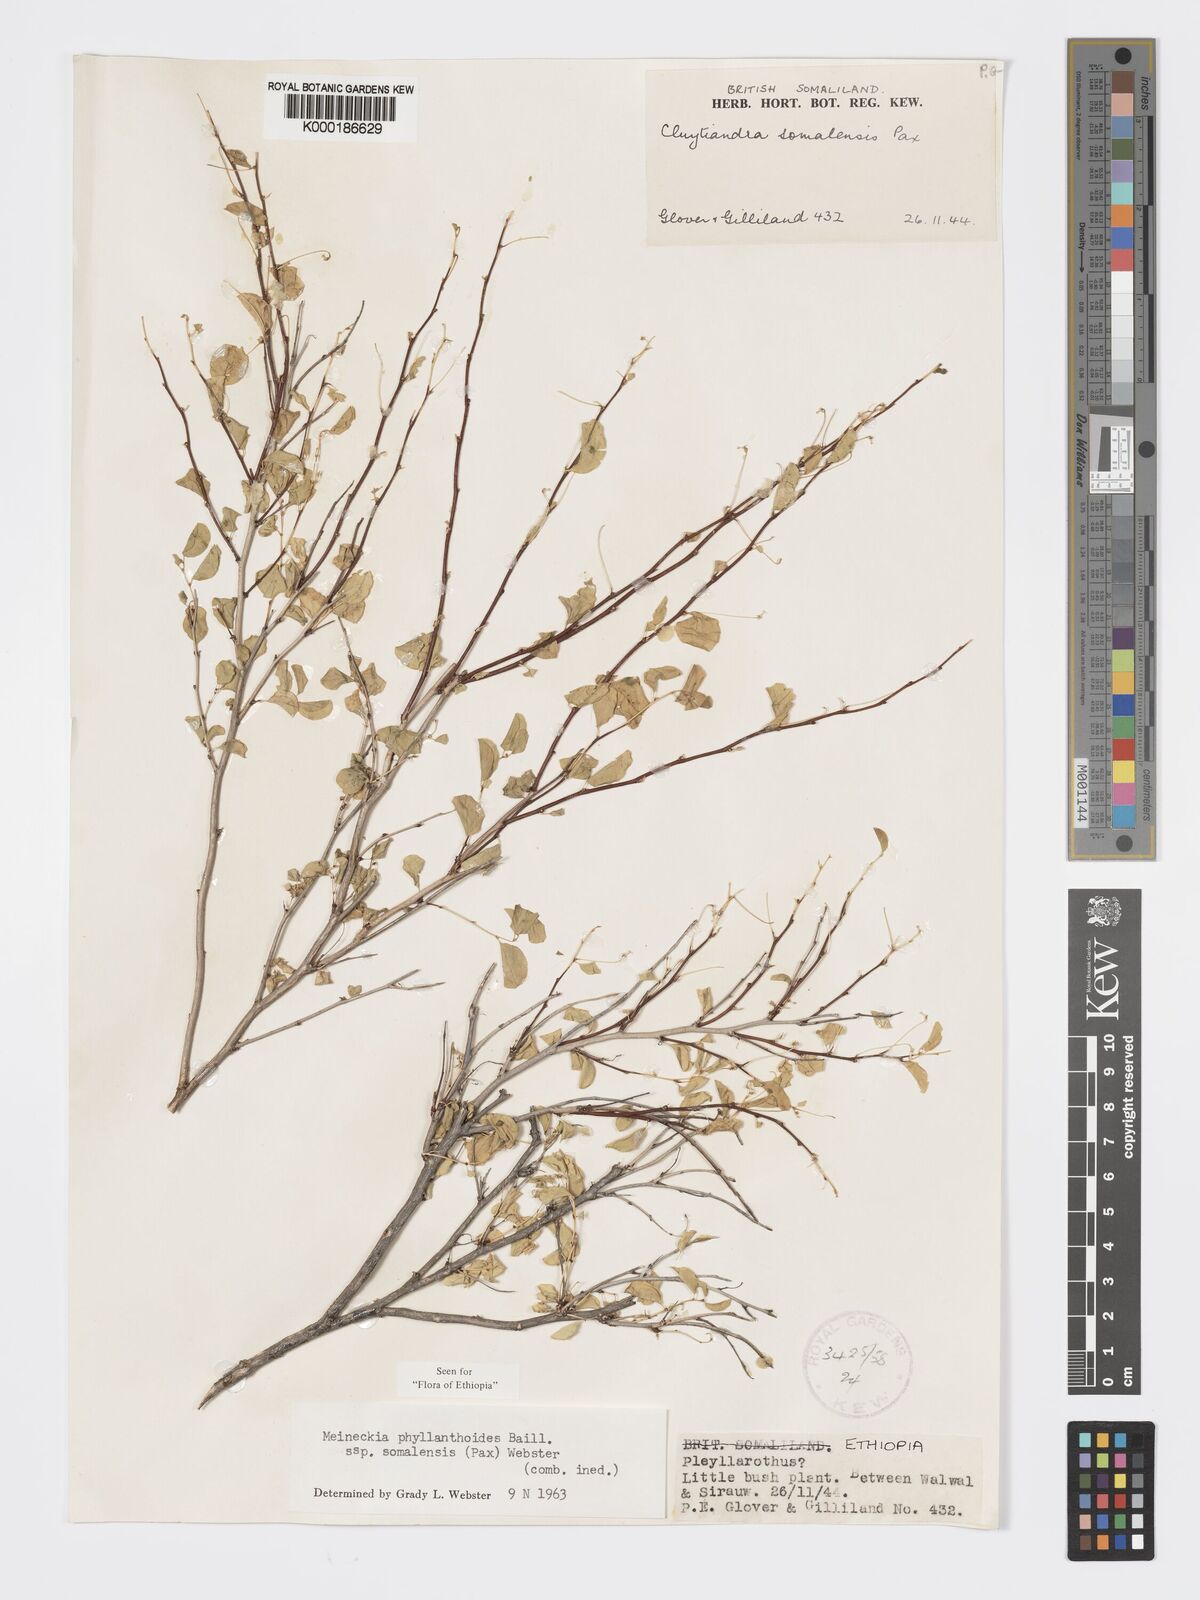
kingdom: Plantae
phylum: Tracheophyta
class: Magnoliopsida
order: Malpighiales
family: Phyllanthaceae
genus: Meineckia
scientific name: Meineckia phyllanthoides
